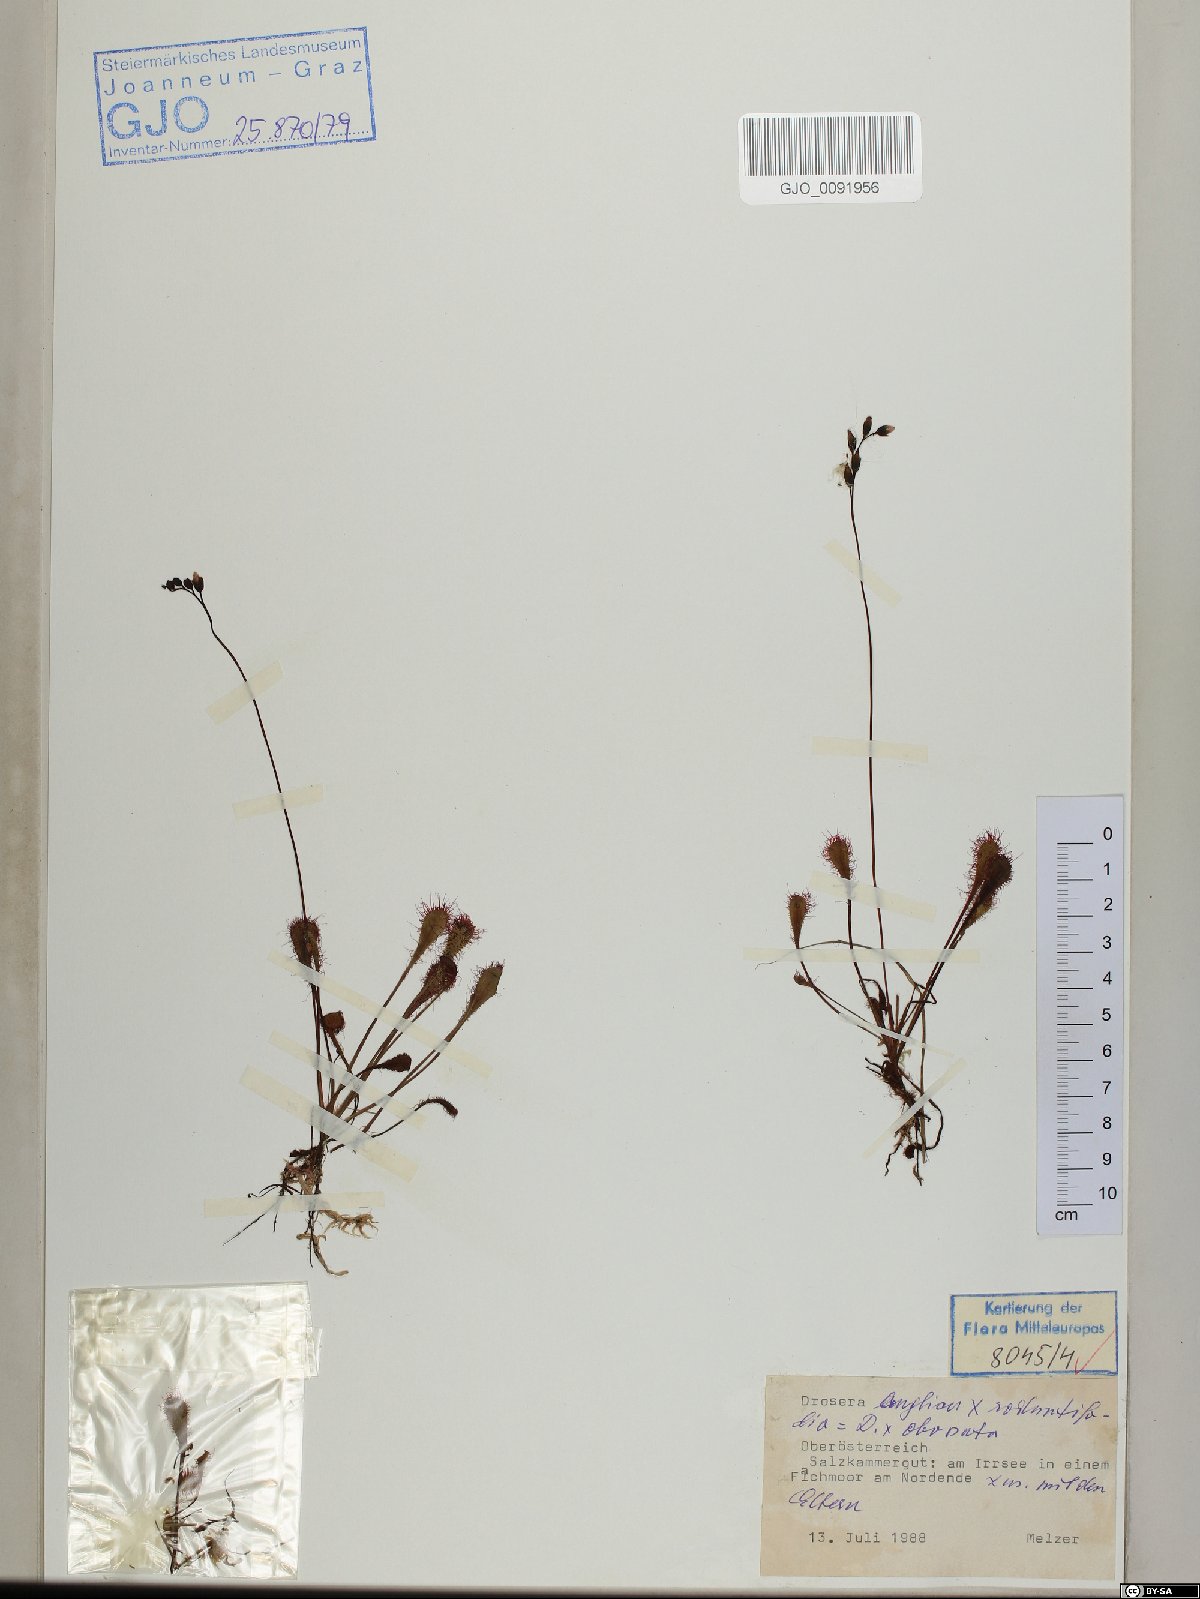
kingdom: Plantae
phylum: Tracheophyta
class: Magnoliopsida
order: Caryophyllales
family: Droseraceae
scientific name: Droseraceae
